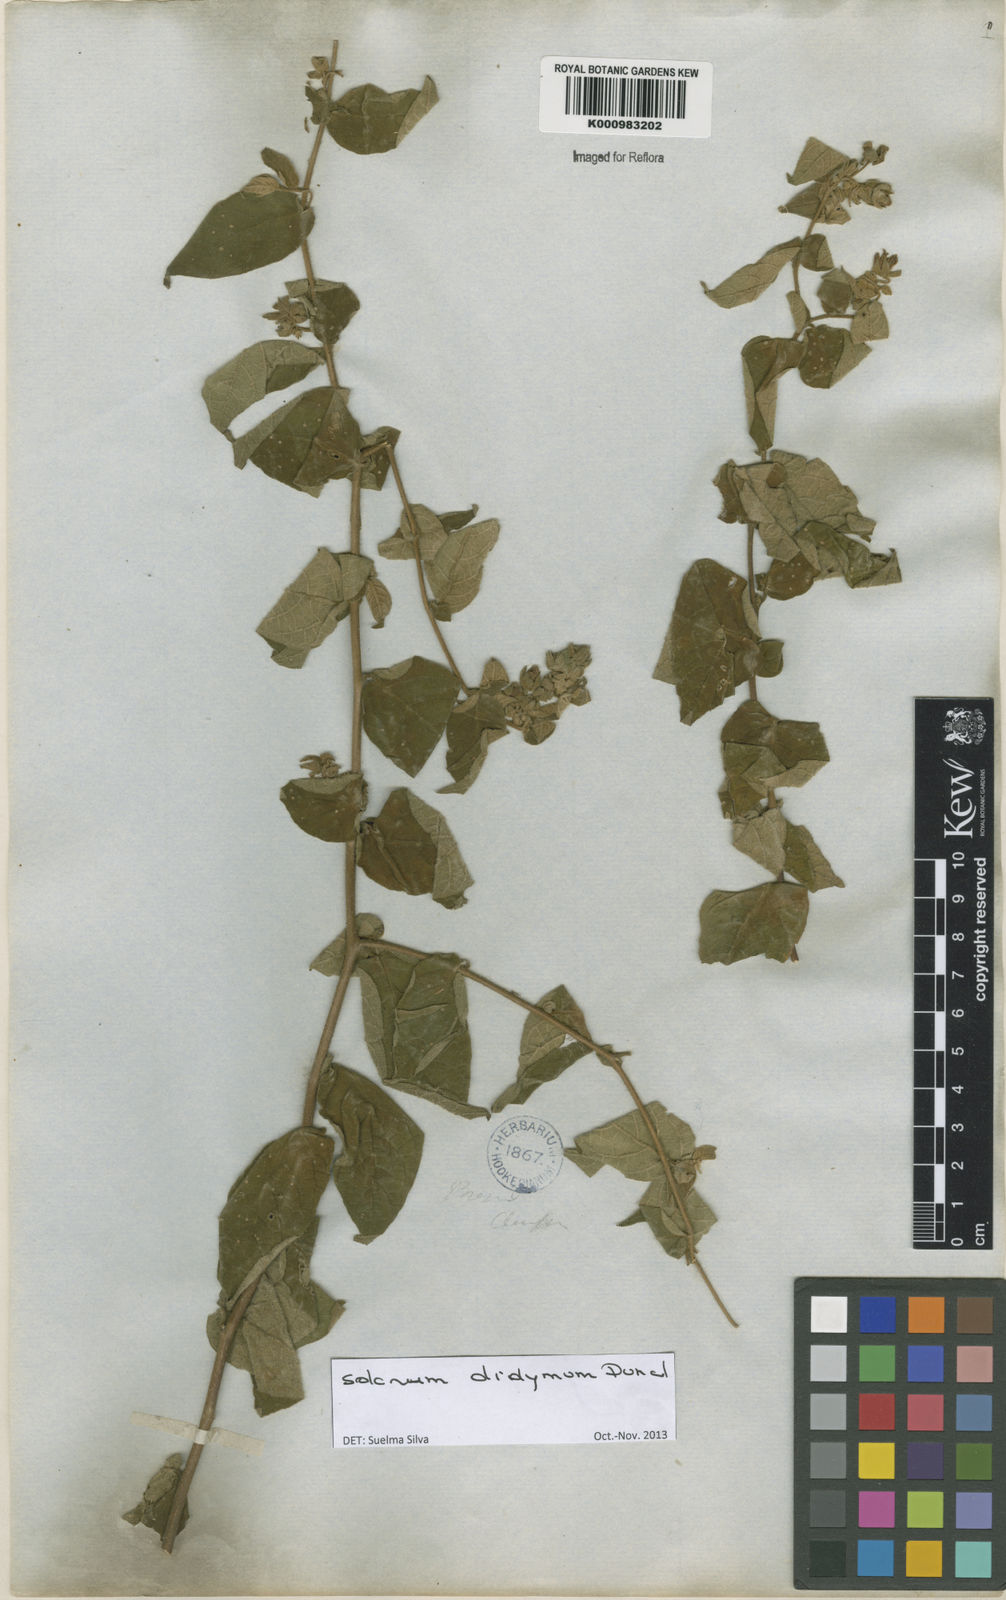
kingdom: Plantae
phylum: Tracheophyta
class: Magnoliopsida
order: Solanales
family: Solanaceae
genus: Solanum
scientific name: Solanum didymum
